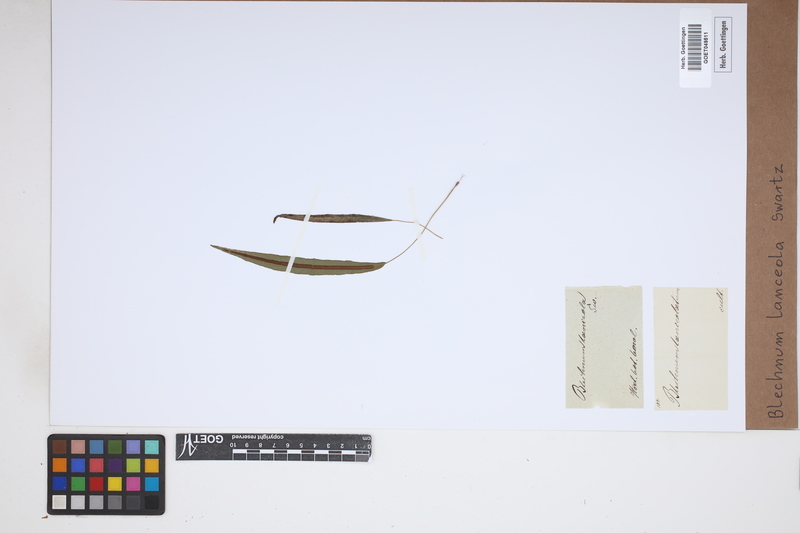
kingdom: Plantae
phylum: Tracheophyta
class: Polypodiopsida
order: Polypodiales
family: Blechnaceae
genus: Blechnum
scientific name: Blechnum lanceola
